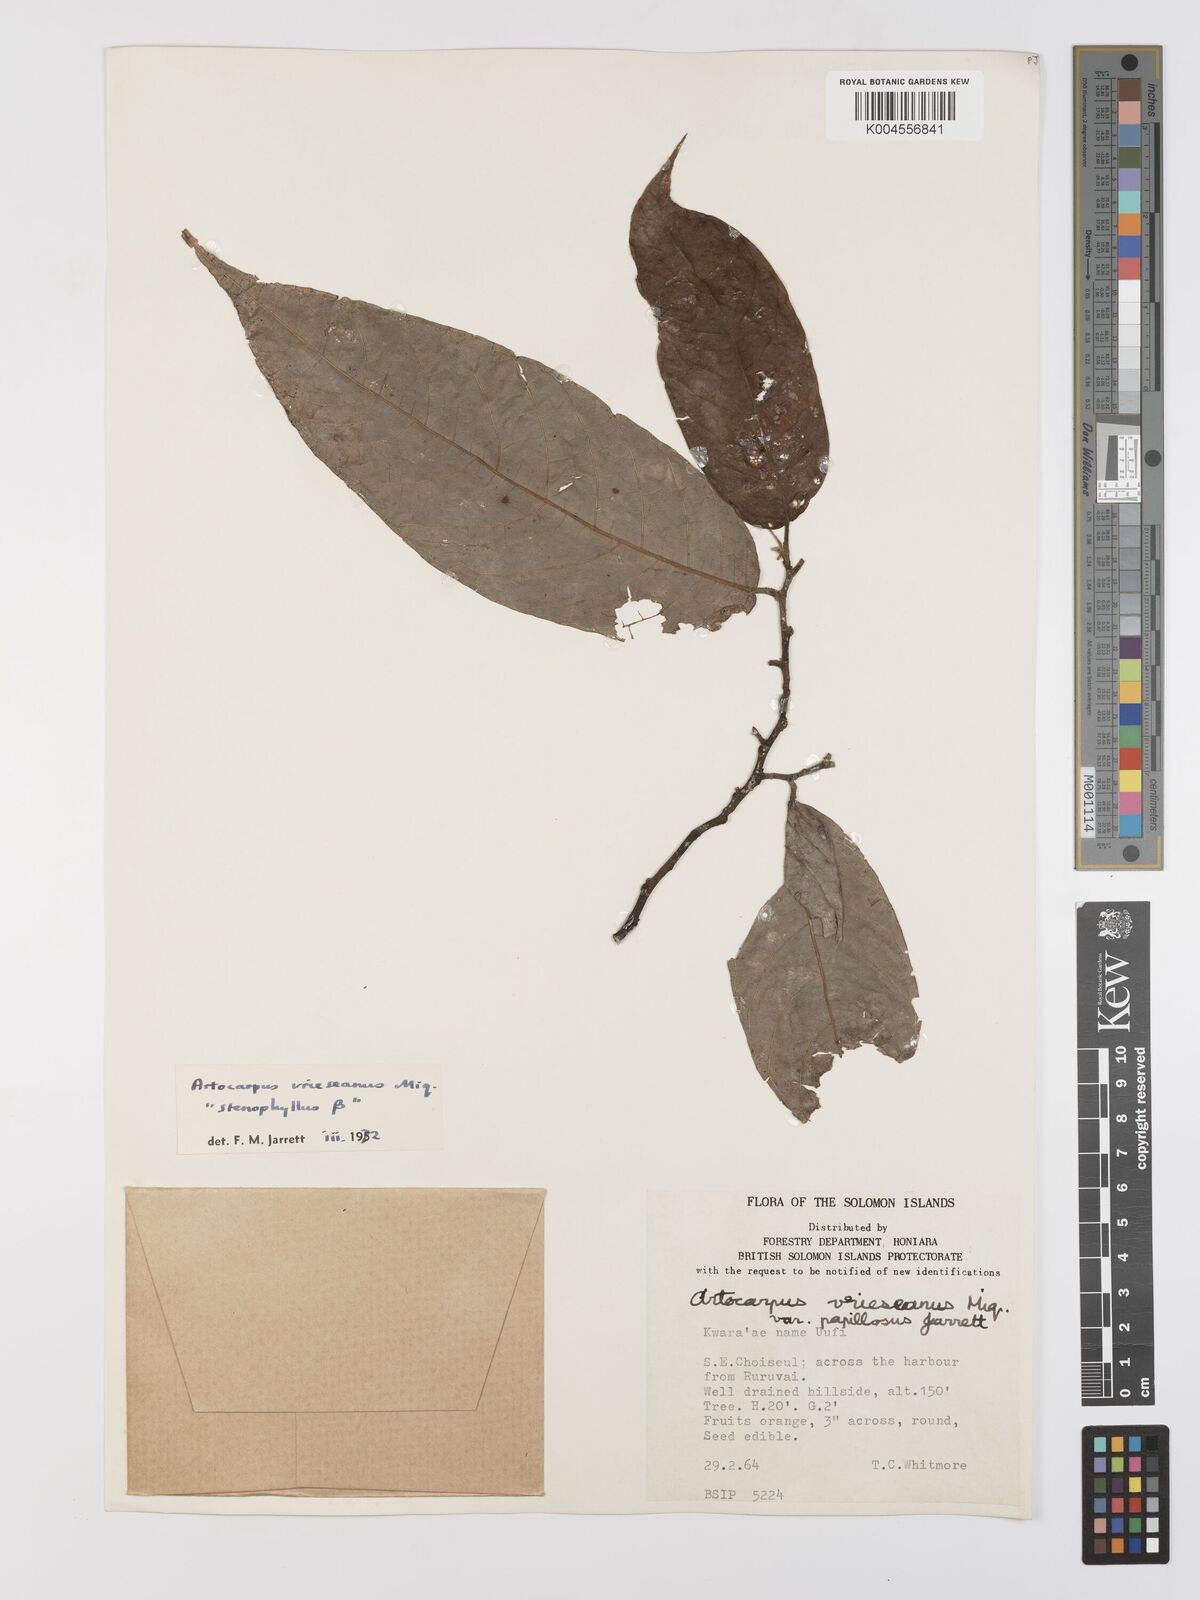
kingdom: Plantae
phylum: Tracheophyta
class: Magnoliopsida
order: Rosales
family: Moraceae
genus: Artocarpus
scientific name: Artocarpus vrieseanus
